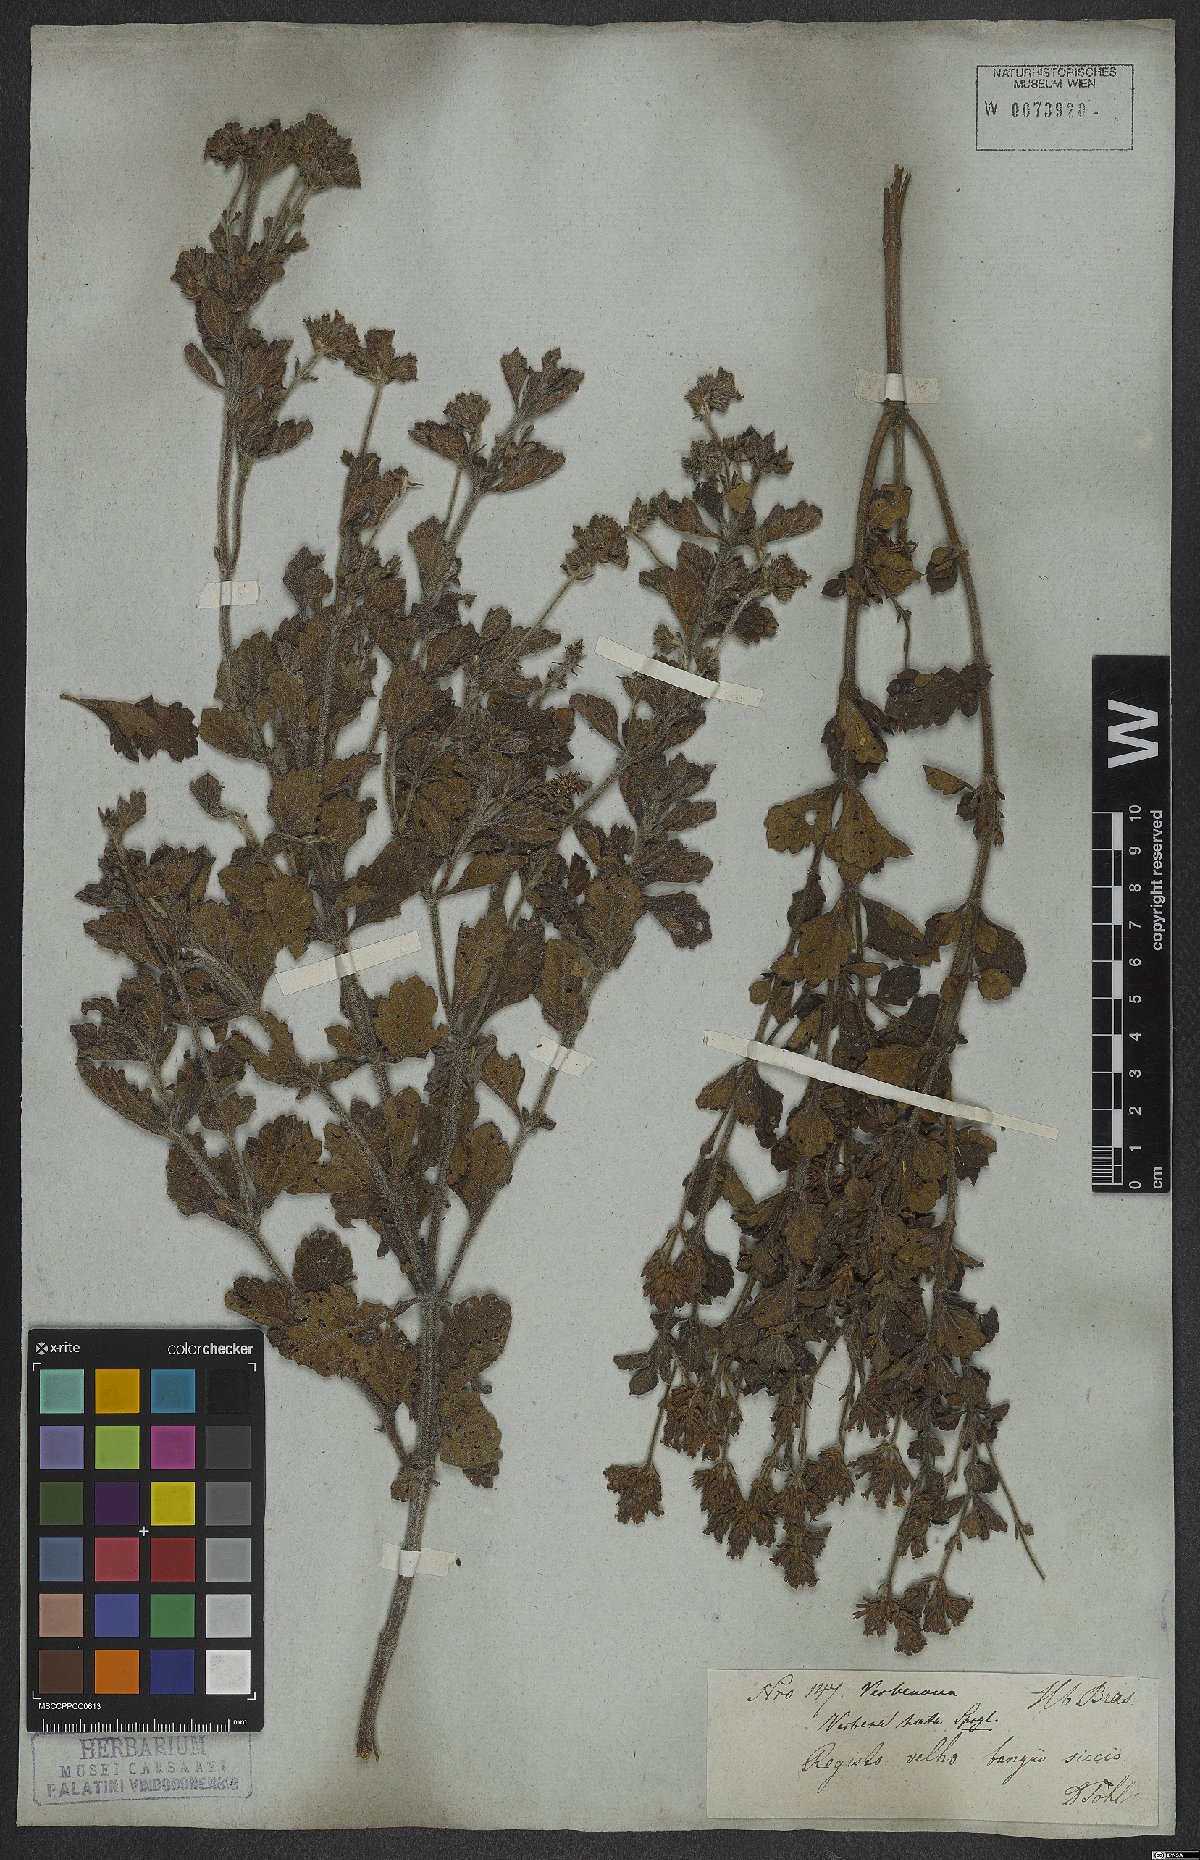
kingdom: Plantae
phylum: Tracheophyta
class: Magnoliopsida
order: Lamiales
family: Verbenaceae
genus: Verbena
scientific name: Verbena hirta
